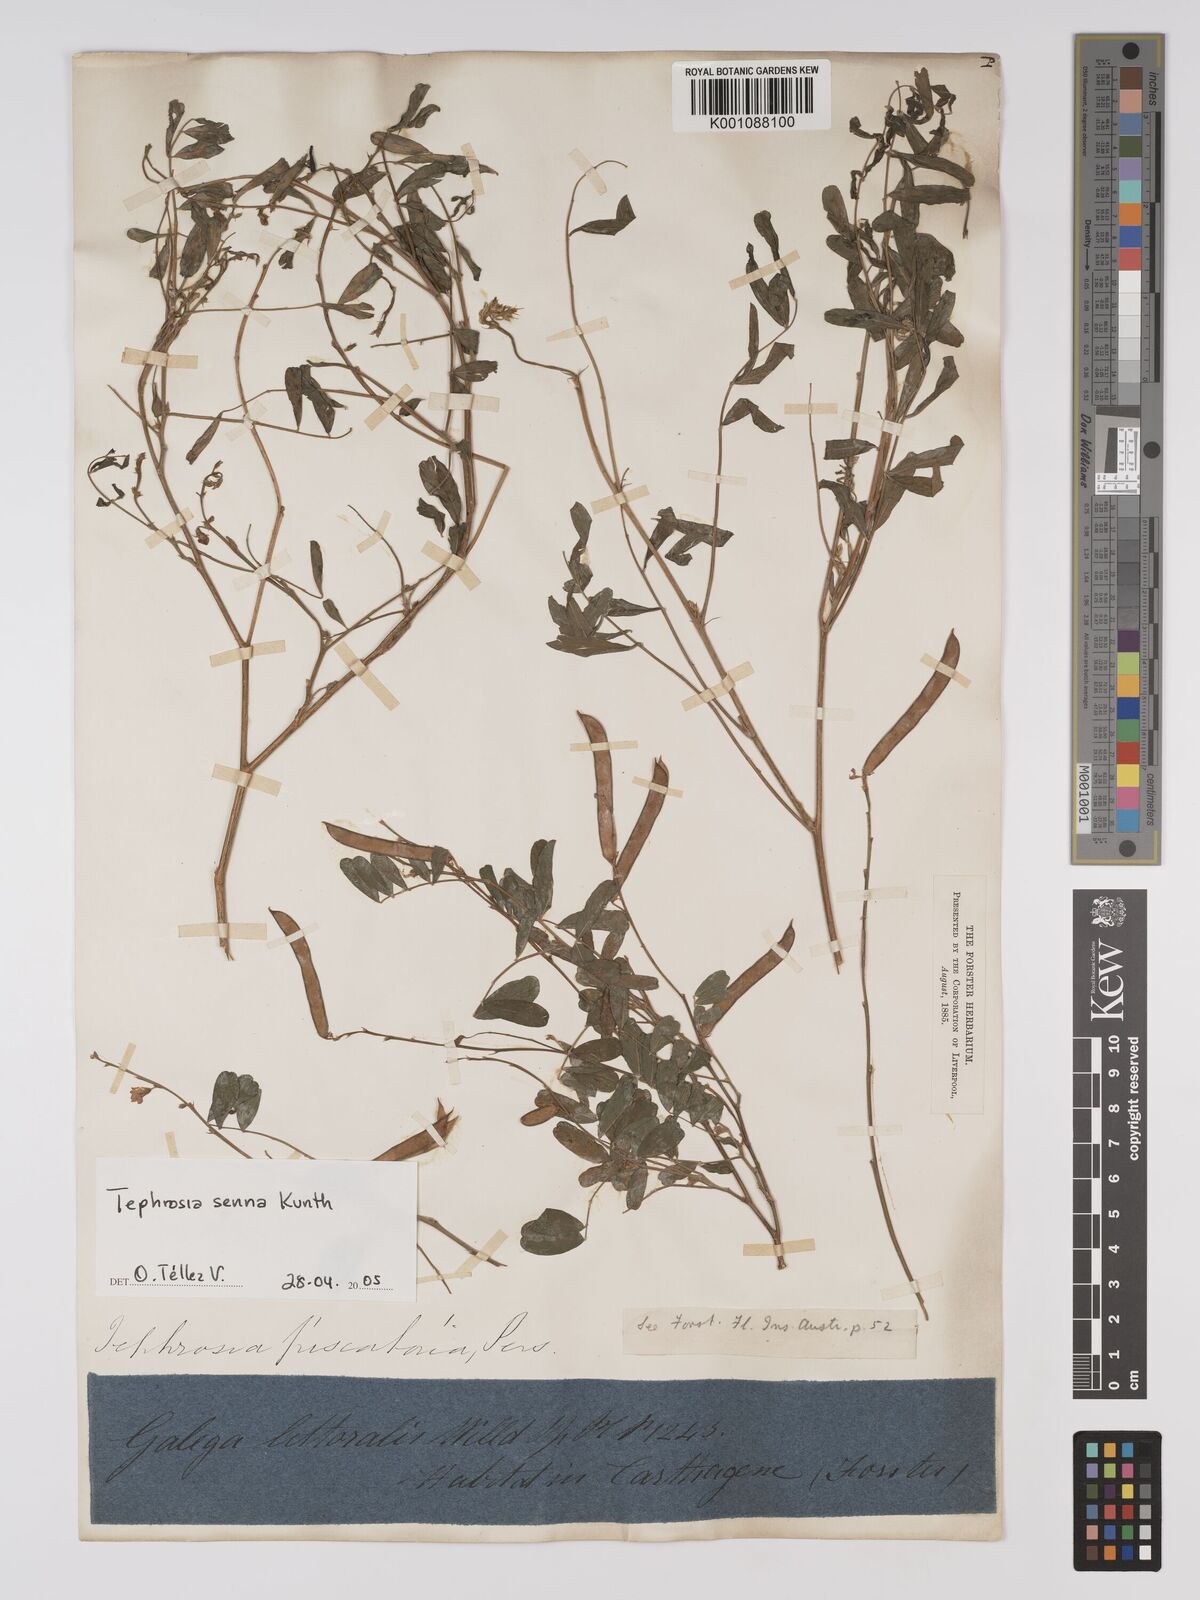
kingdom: Plantae
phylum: Tracheophyta
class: Magnoliopsida
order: Fabales
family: Fabaceae
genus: Tephrosia
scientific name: Tephrosia senna
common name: Senna
